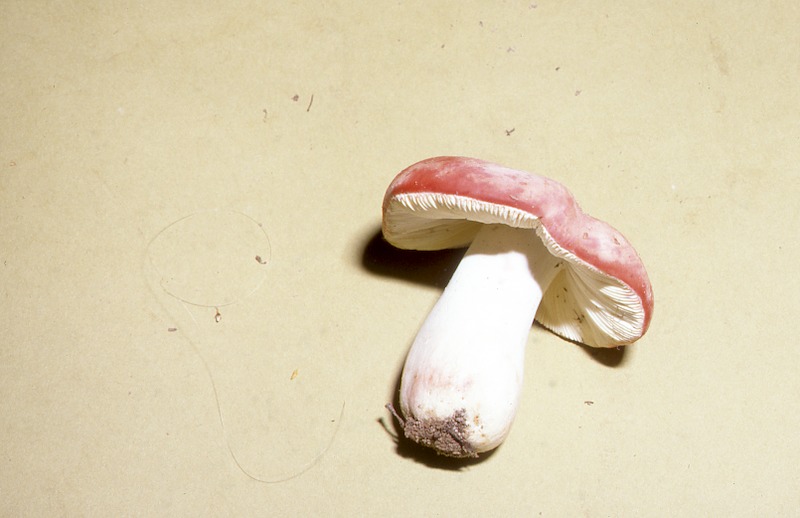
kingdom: Fungi
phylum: Basidiomycota
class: Agaricomycetes
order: Russulales
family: Russulaceae
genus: Russula
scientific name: Russula rosea
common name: Rosy brittlegill
